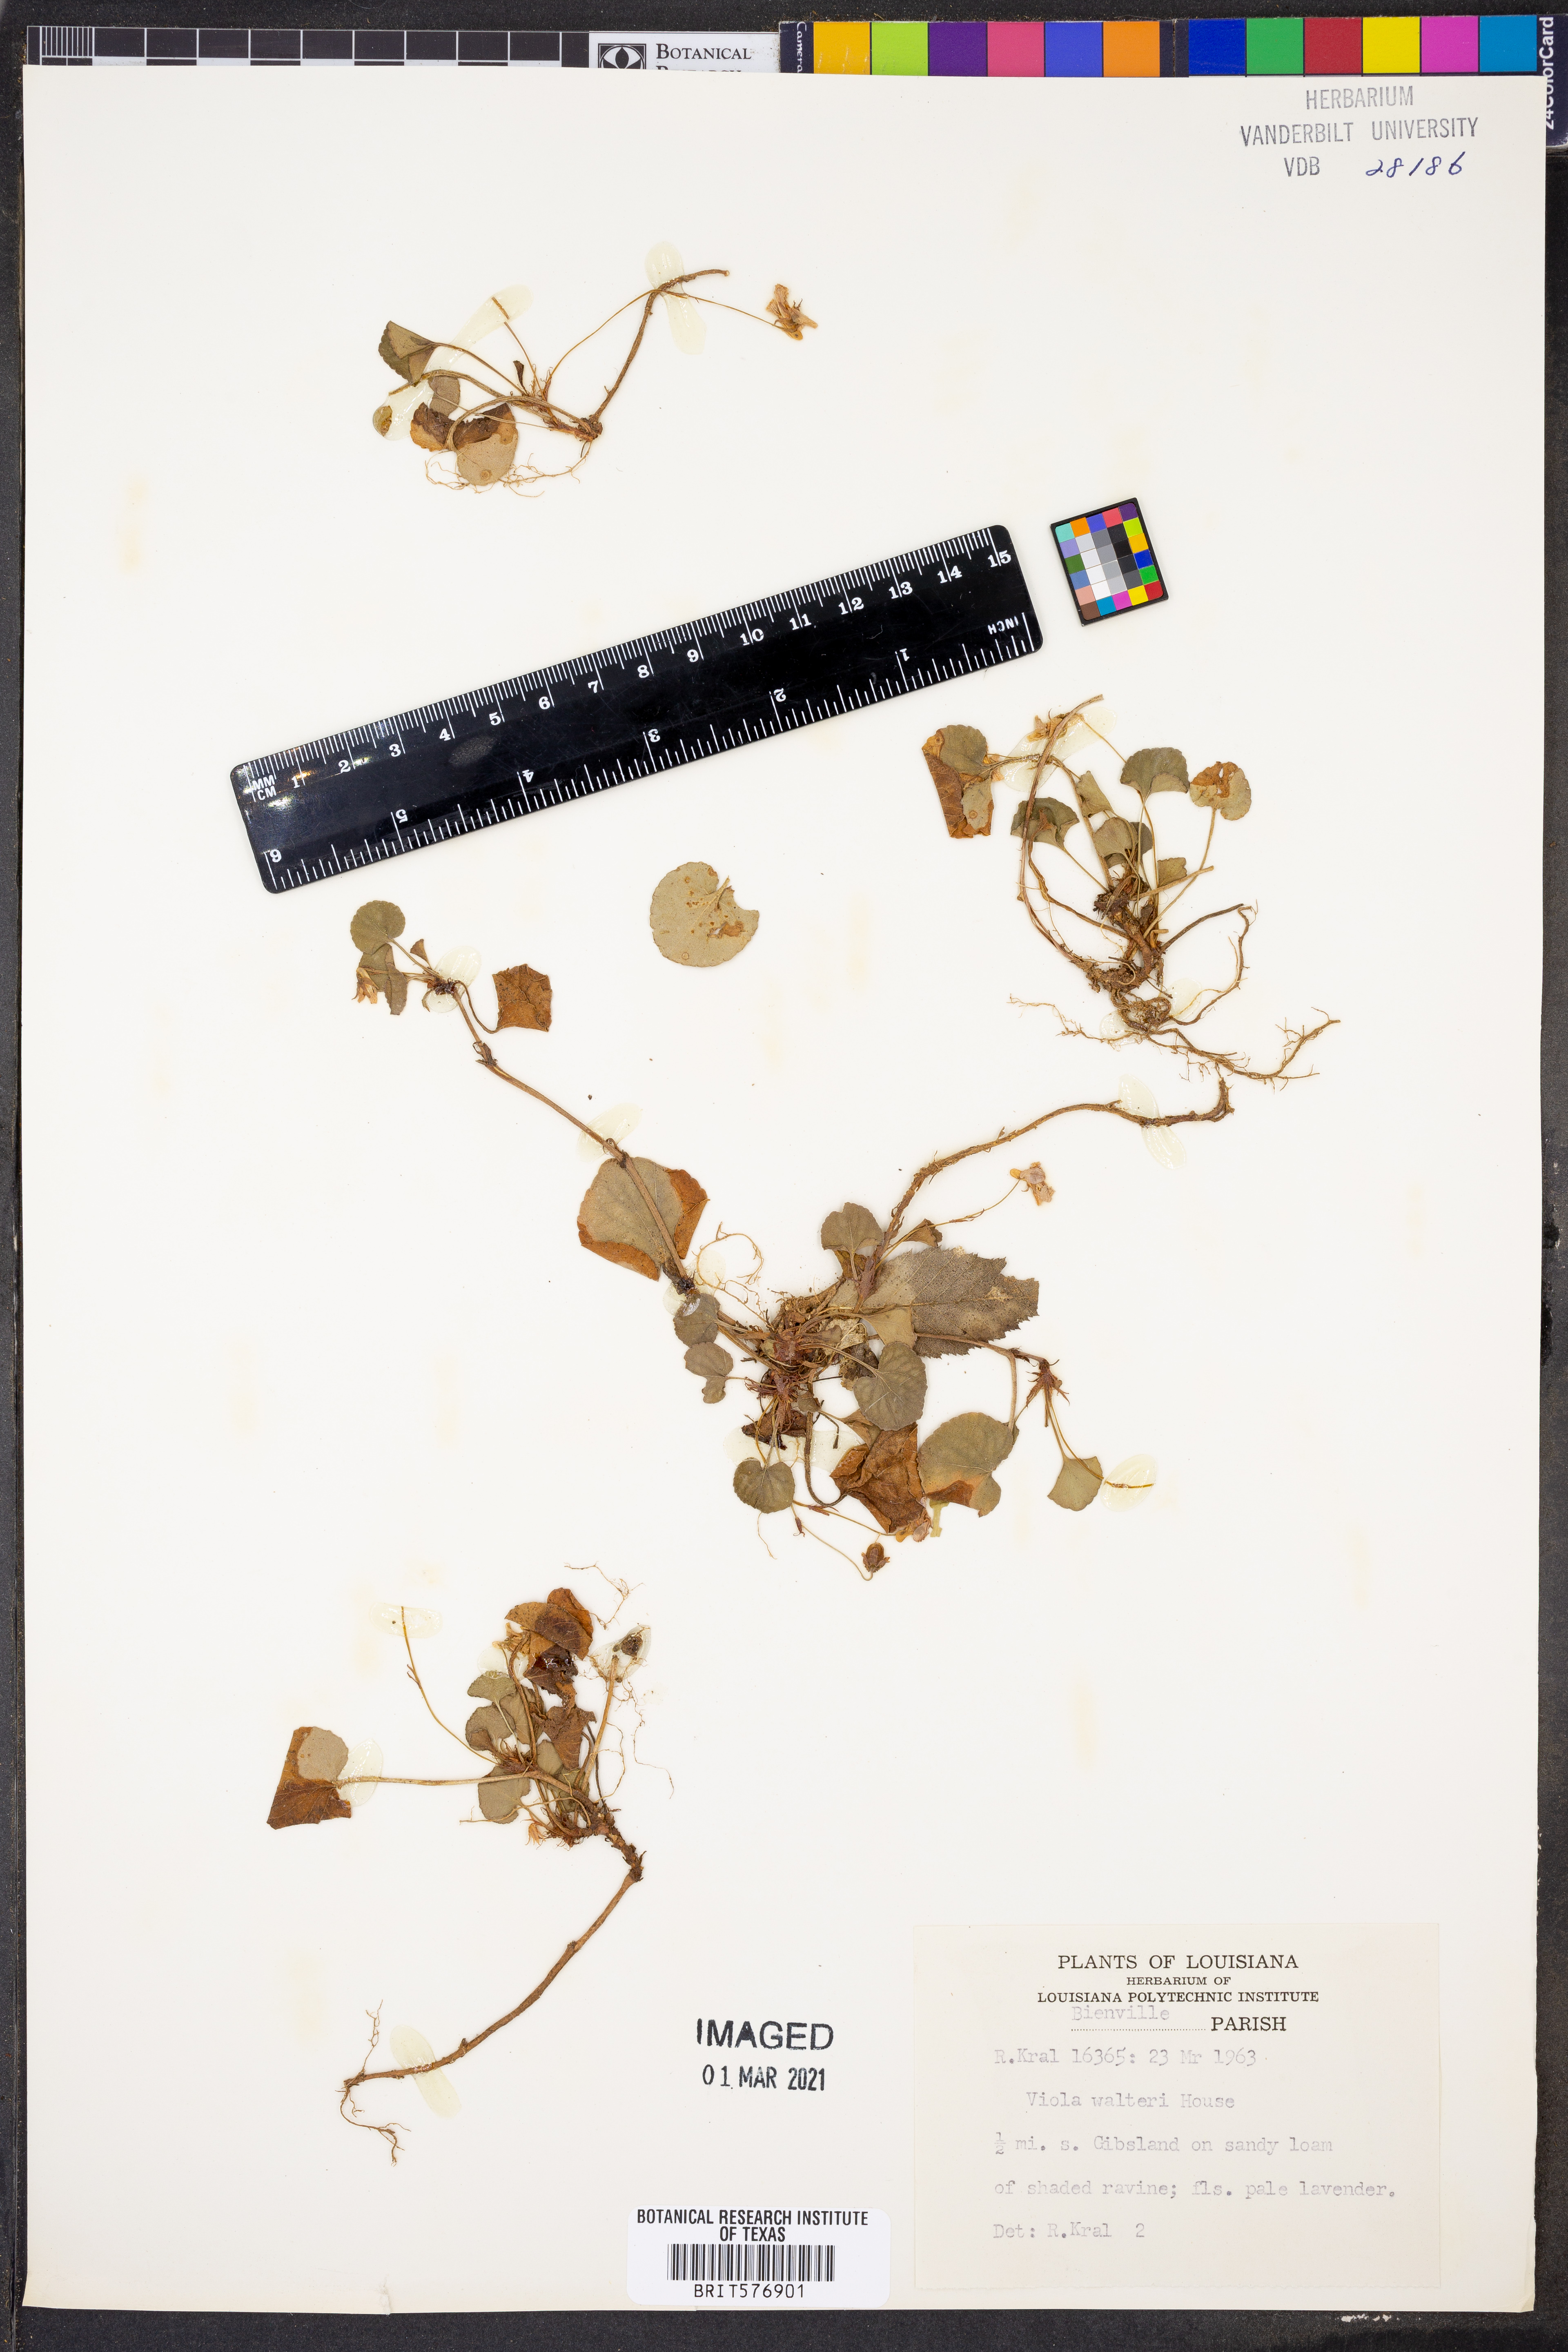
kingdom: Plantae
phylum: Tracheophyta
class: Magnoliopsida
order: Malpighiales
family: Violaceae
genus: Viola
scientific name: Viola walteri
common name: Prostrate southern violet
